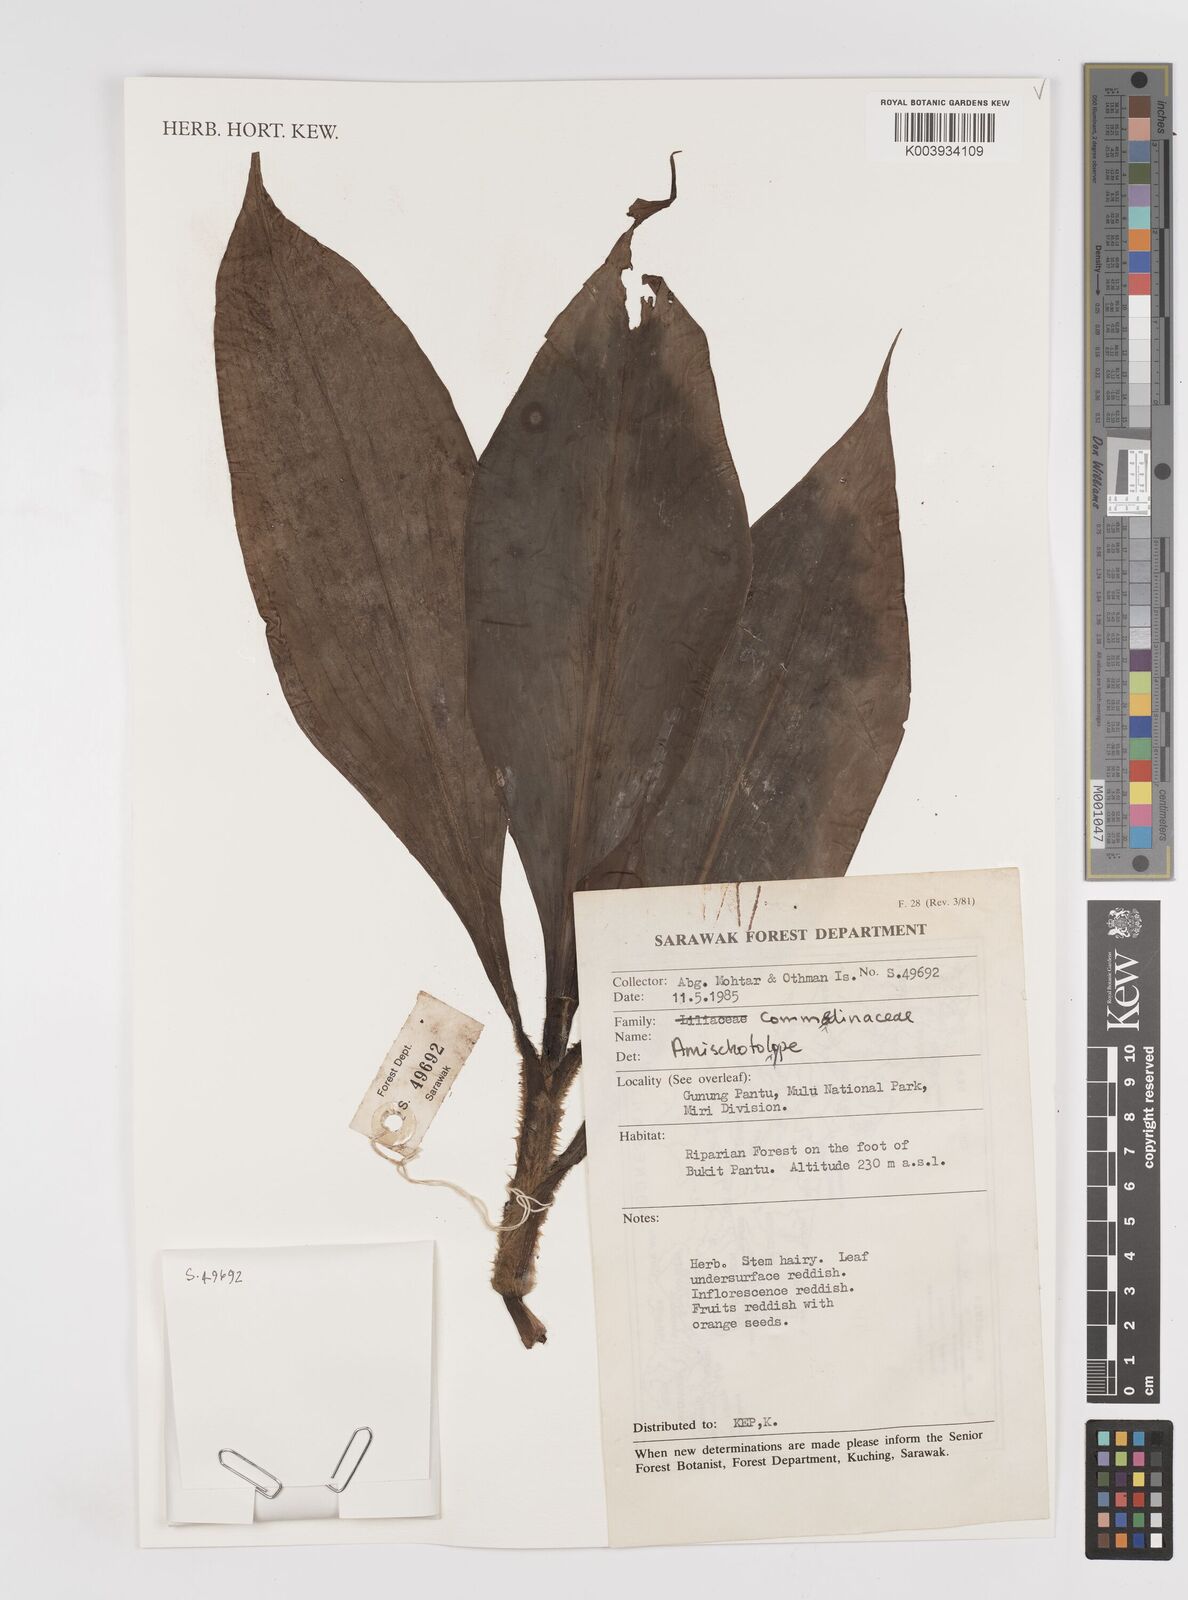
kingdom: Plantae
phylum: Tracheophyta
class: Liliopsida
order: Commelinales
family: Commelinaceae
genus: Amischotolype
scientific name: Amischotolype
